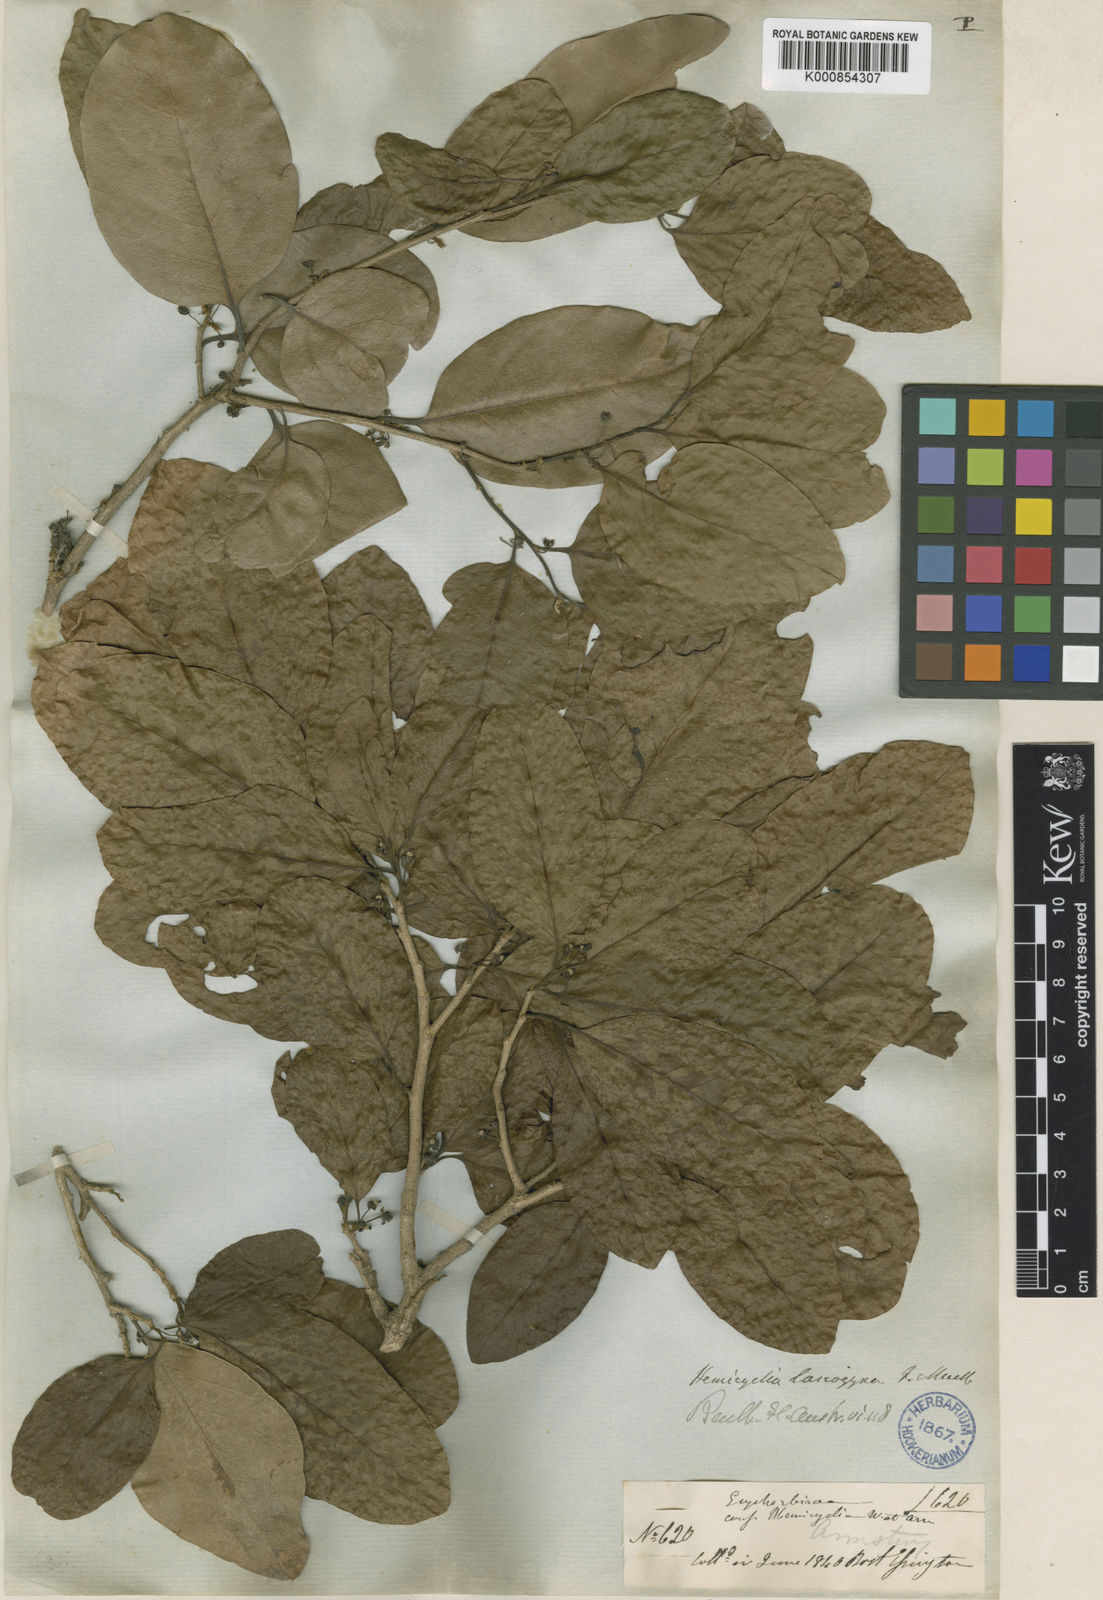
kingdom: Plantae
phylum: Tracheophyta
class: Magnoliopsida
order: Malpighiales
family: Putranjivaceae
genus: Drypetes
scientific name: Drypetes deplanchei
